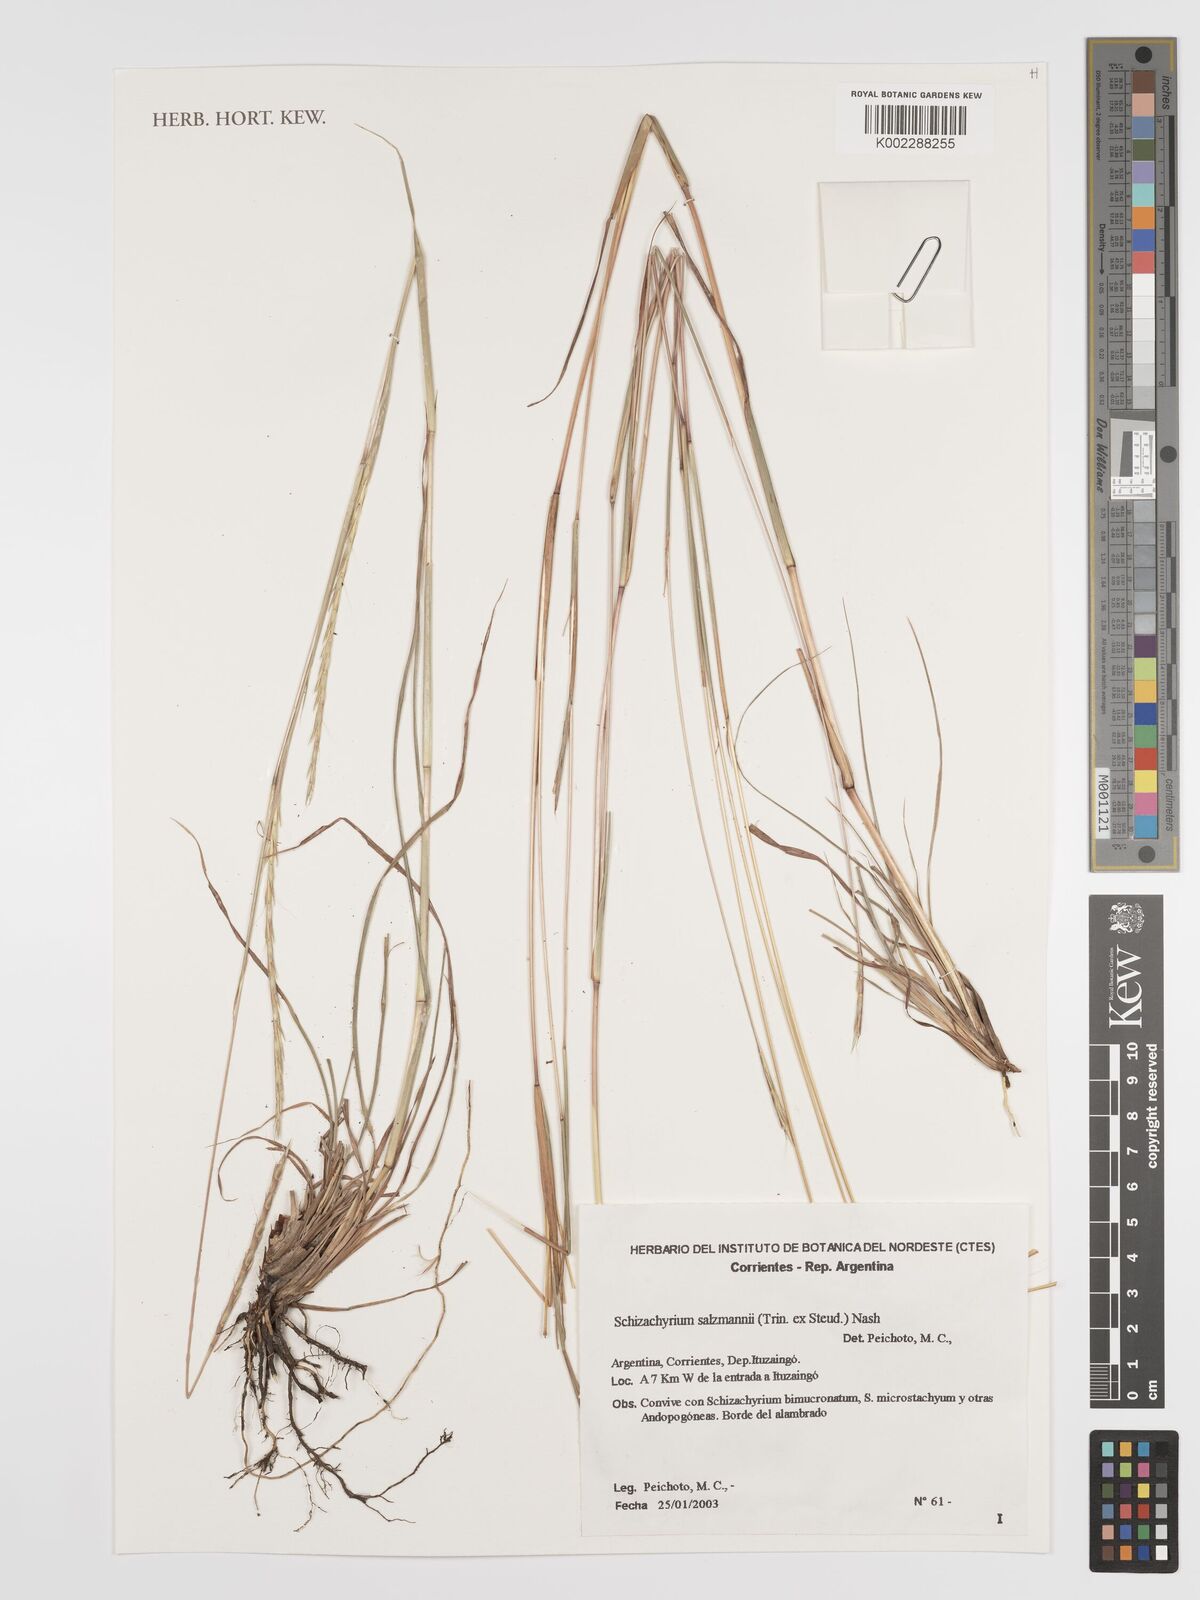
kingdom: Plantae
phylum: Tracheophyta
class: Liliopsida
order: Poales
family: Poaceae
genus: Andropogon
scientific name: Andropogon salzmannii
